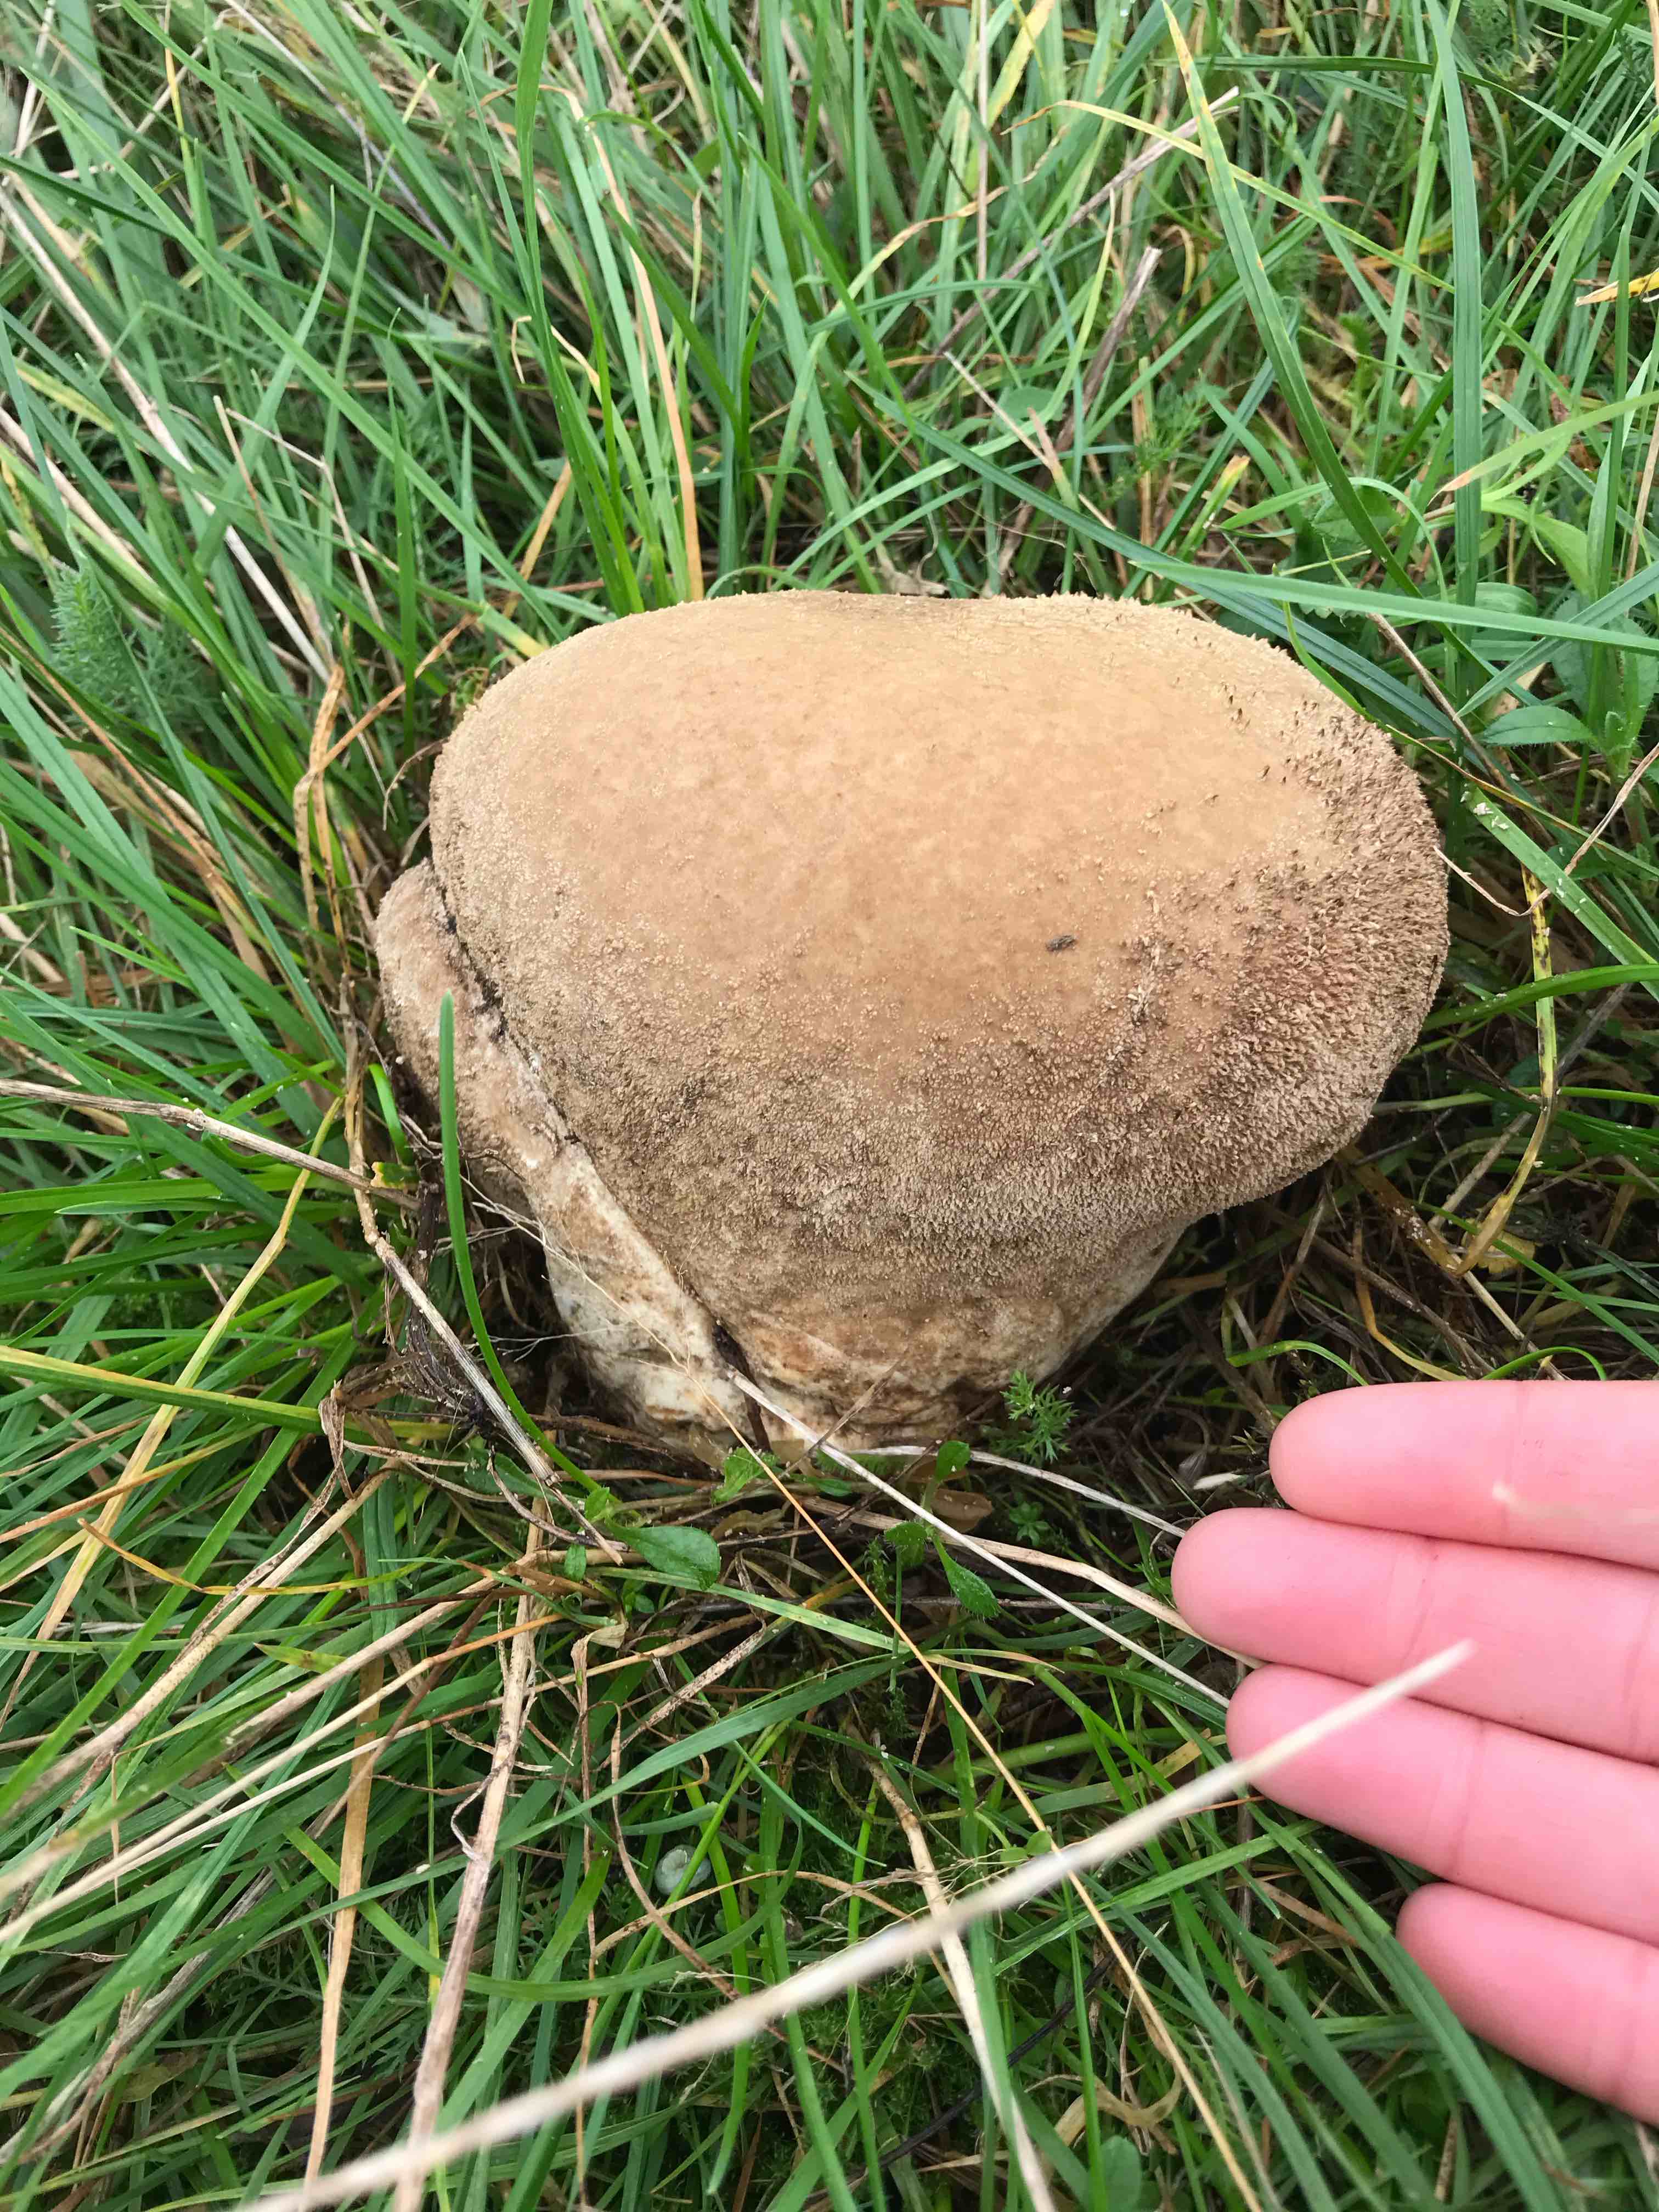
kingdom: Fungi
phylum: Basidiomycota
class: Agaricomycetes
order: Agaricales
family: Lycoperdaceae
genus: Bovistella
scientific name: Bovistella utriformis
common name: skællet støvbold
